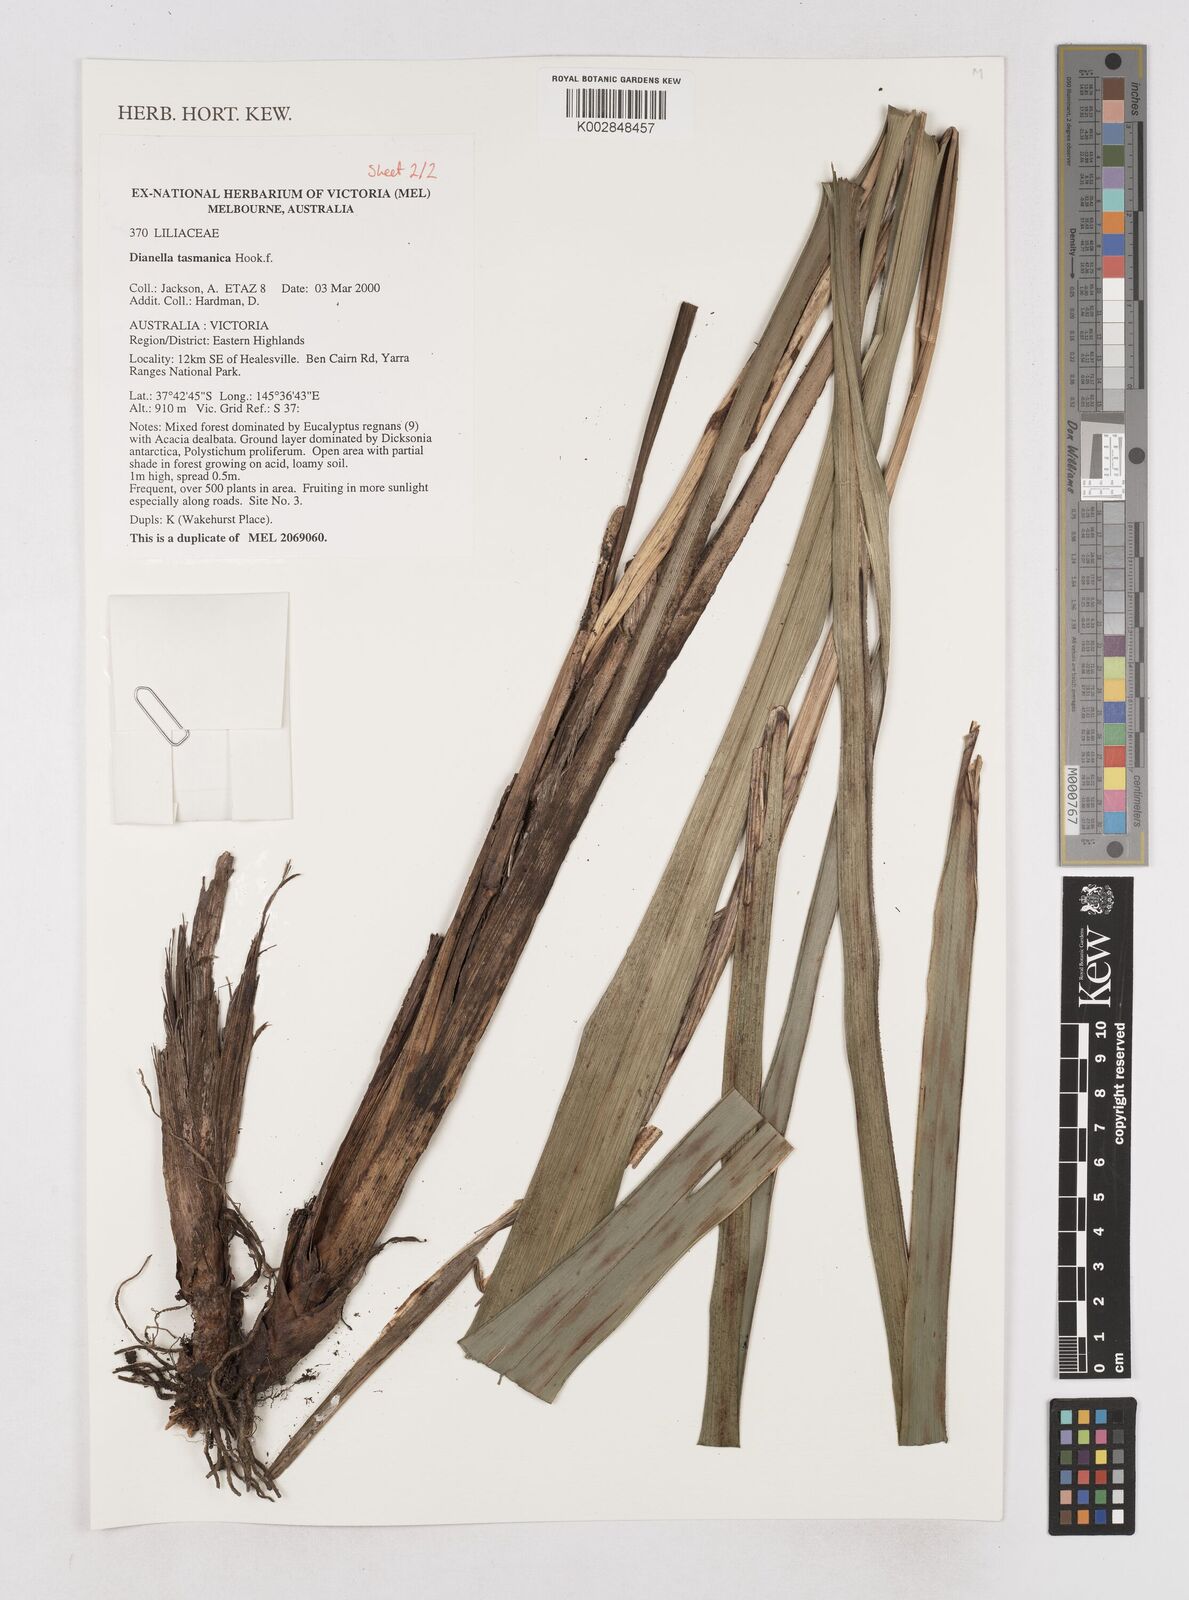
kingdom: Plantae
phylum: Tracheophyta
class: Liliopsida
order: Asparagales
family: Asphodelaceae
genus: Dianella
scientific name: Dianella tasmanica
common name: Tasman flax-lily
